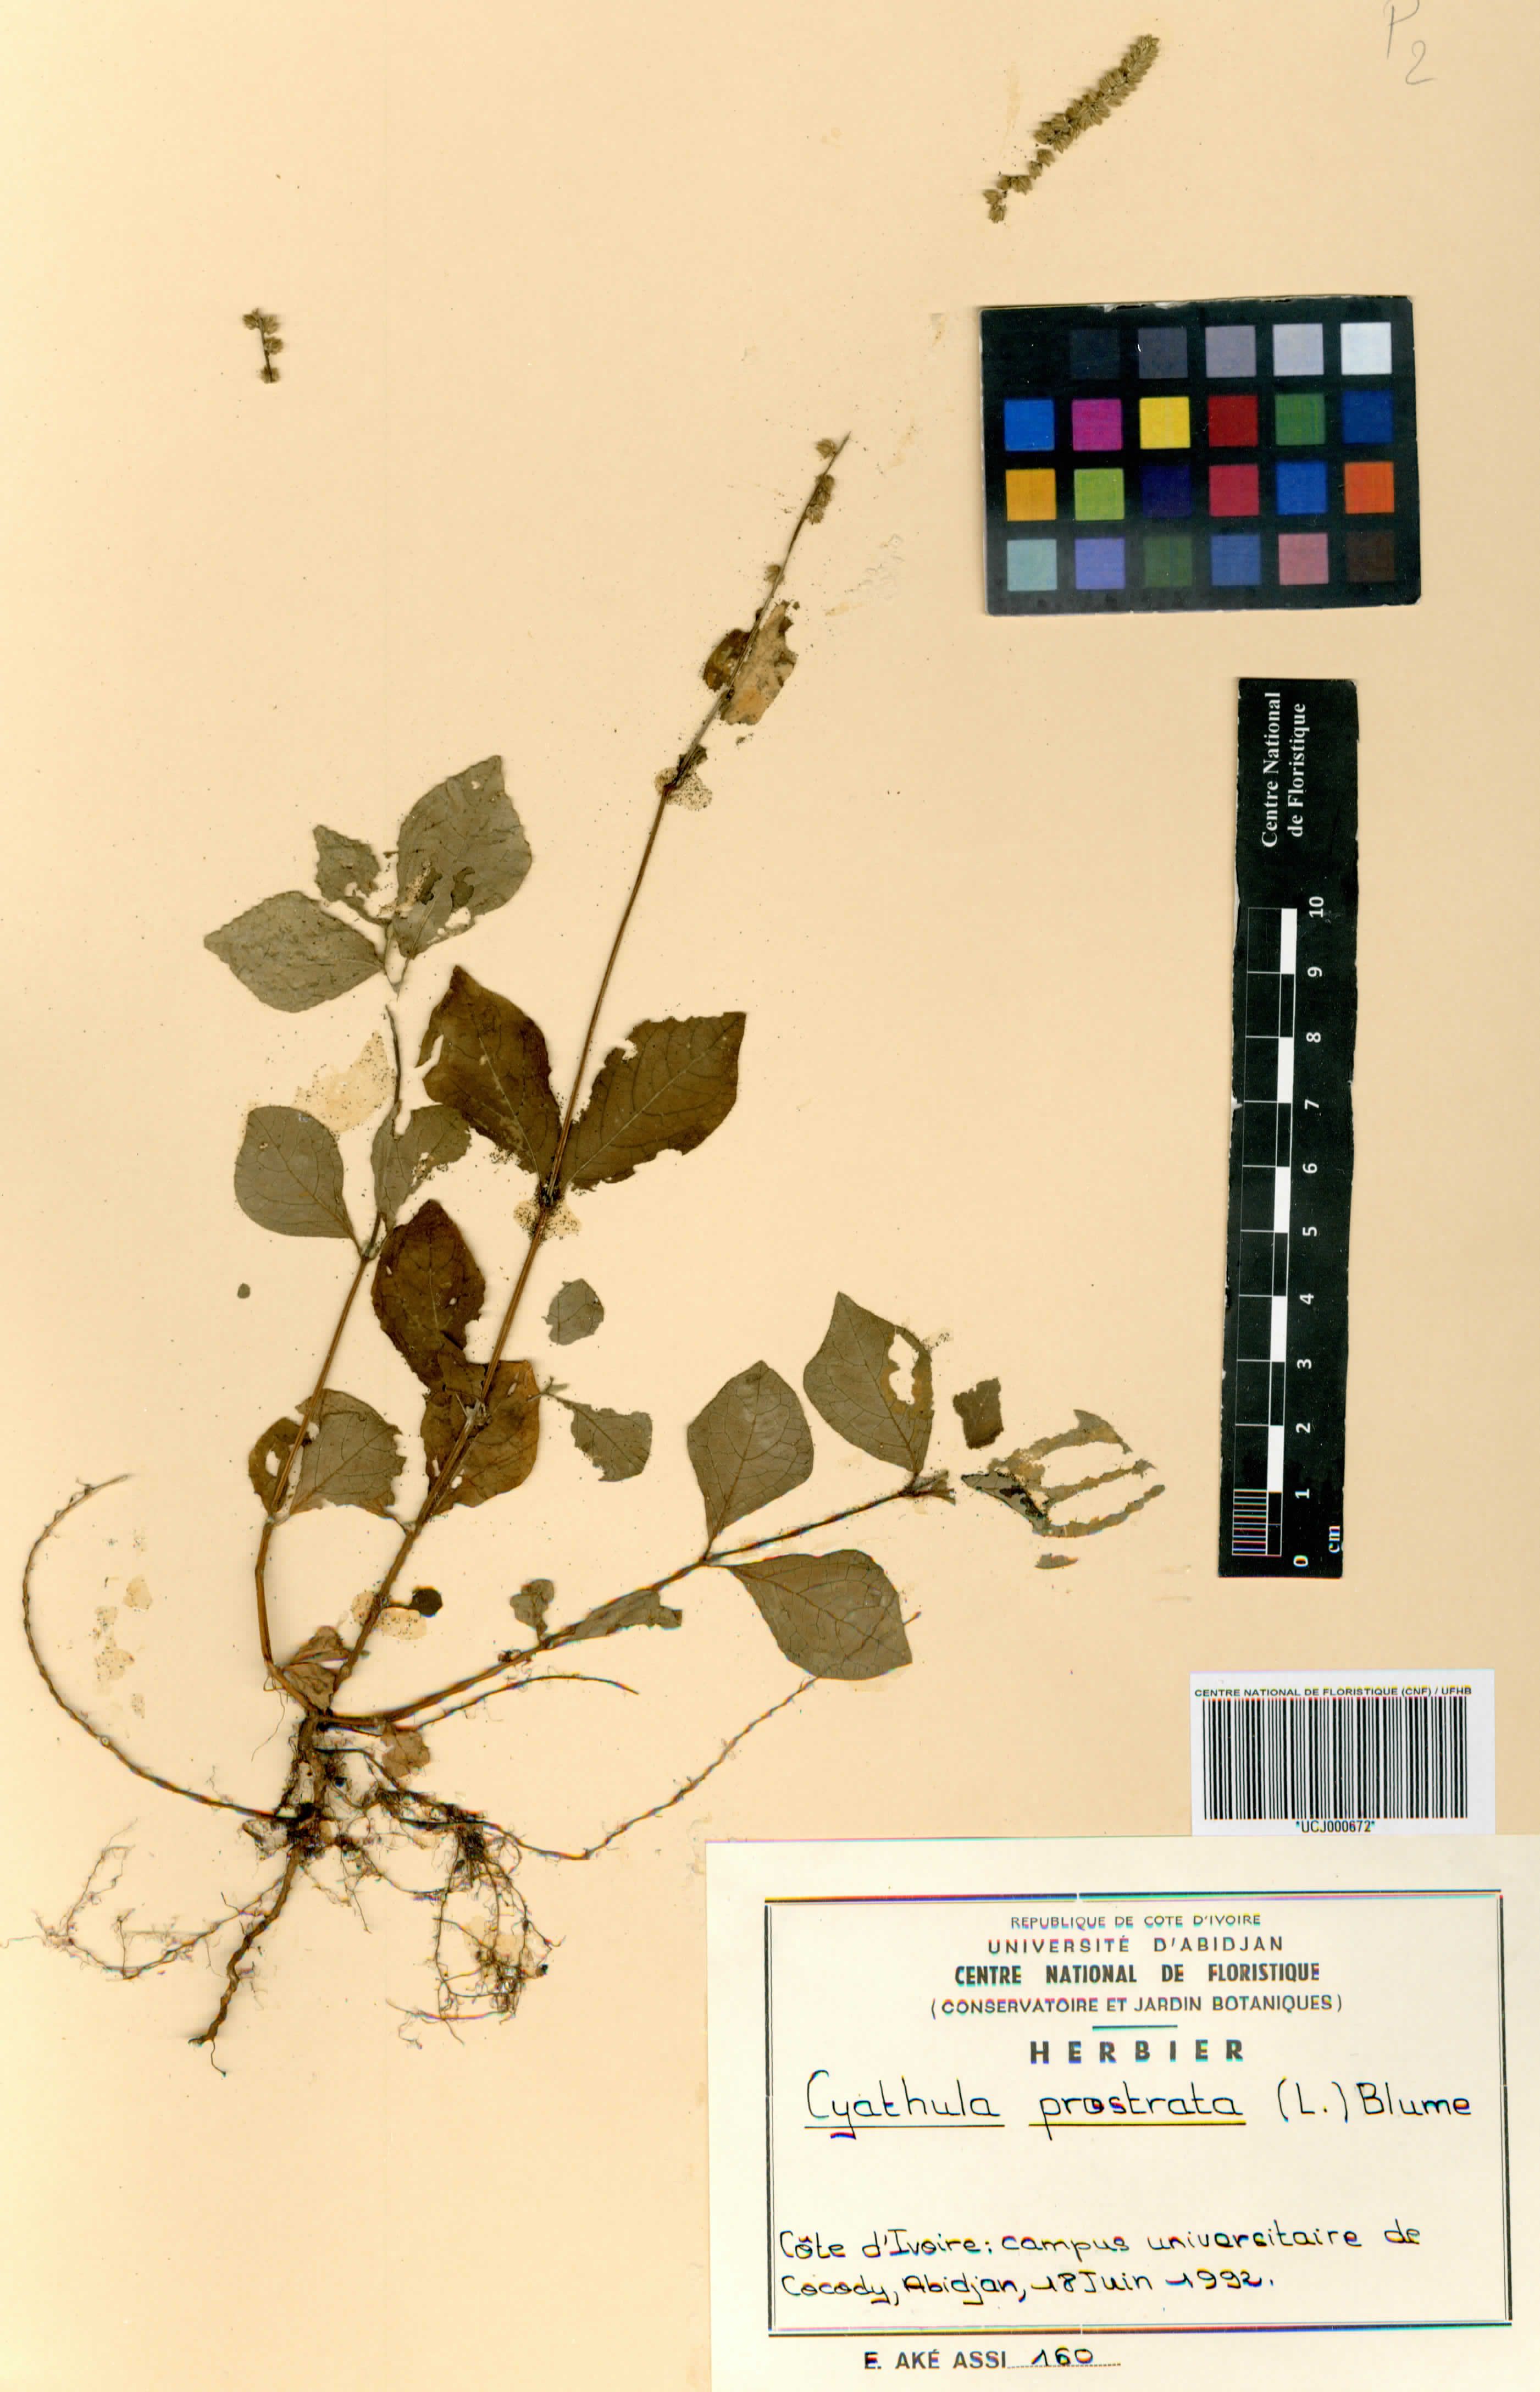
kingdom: Plantae
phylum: Tracheophyta
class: Magnoliopsida
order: Caryophyllales
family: Amaranthaceae
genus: Cyathula
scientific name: Cyathula prostrata
